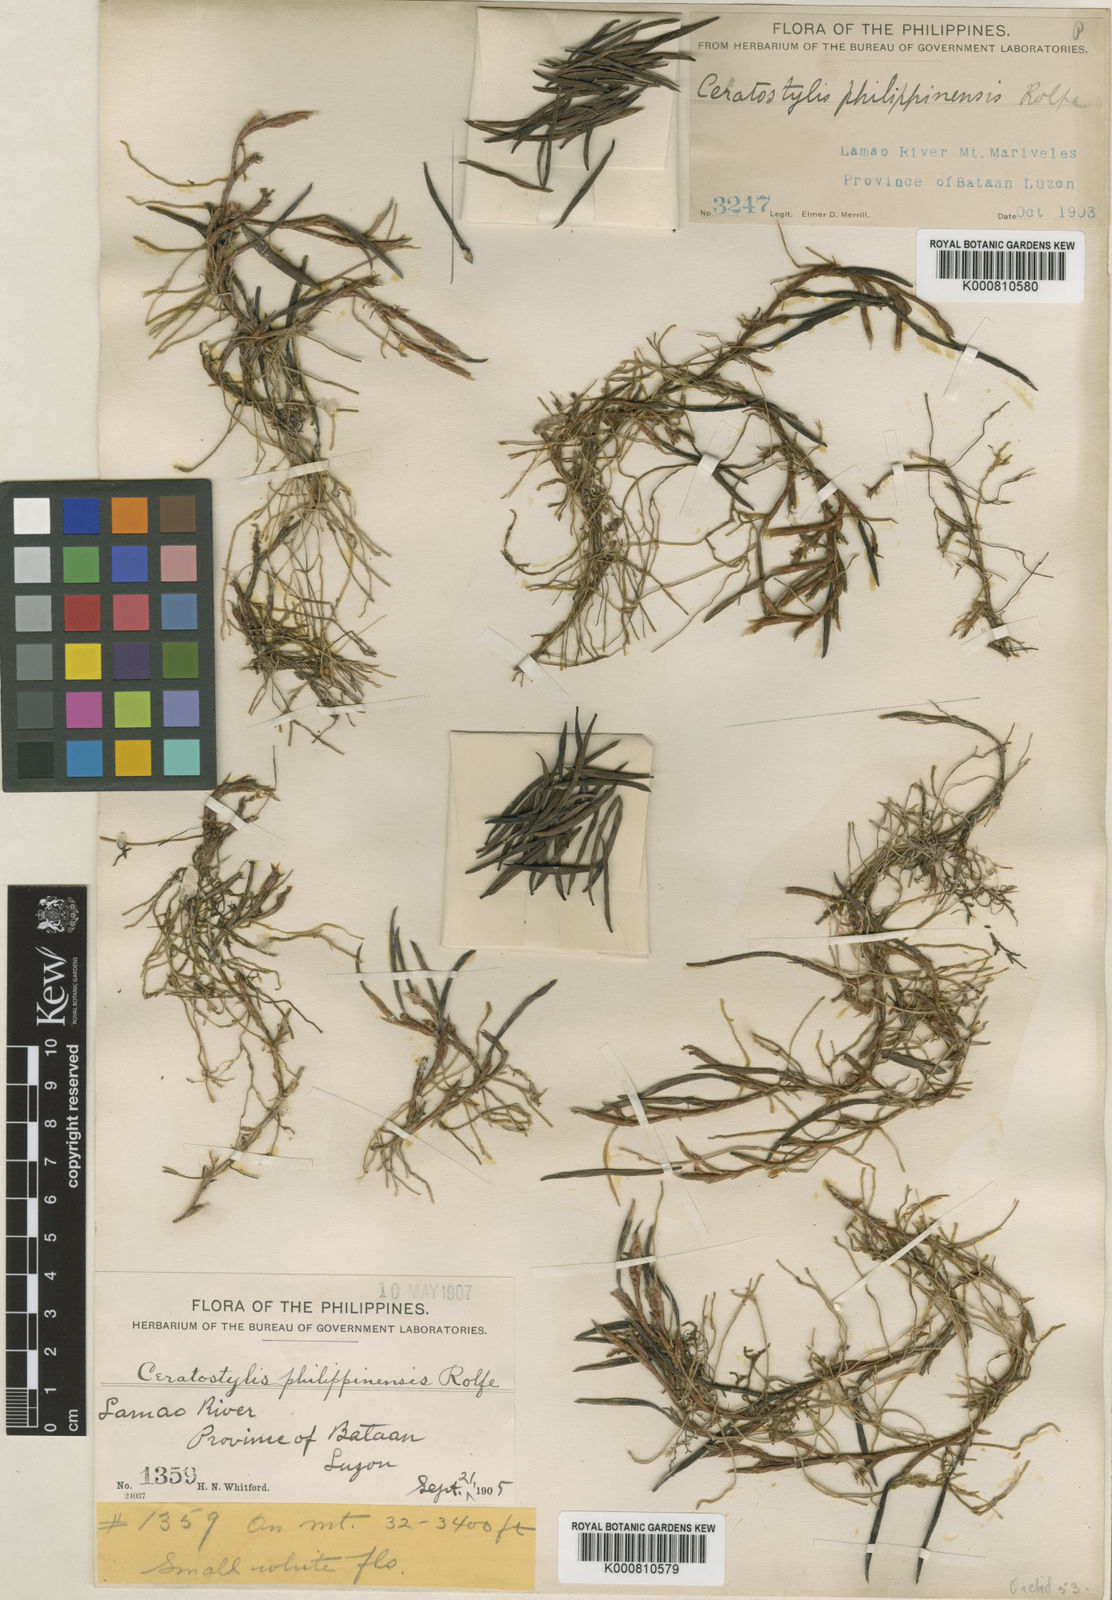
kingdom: Plantae
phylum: Tracheophyta
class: Liliopsida
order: Asparagales
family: Orchidaceae
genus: Ceratostylis
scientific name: Ceratostylis philippinensis
